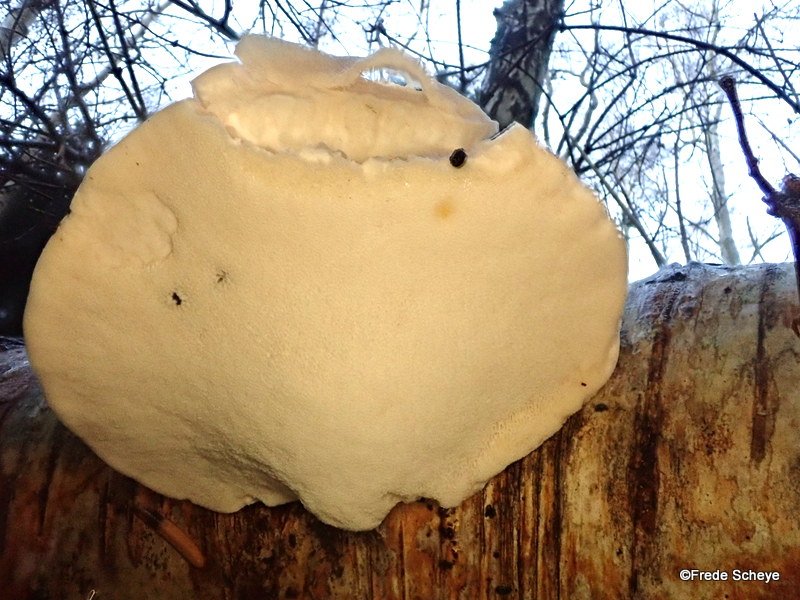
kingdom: Fungi
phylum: Basidiomycota
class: Agaricomycetes
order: Polyporales
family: Fomitopsidaceae
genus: Fomitopsis
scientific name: Fomitopsis betulina
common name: birkeporesvamp
